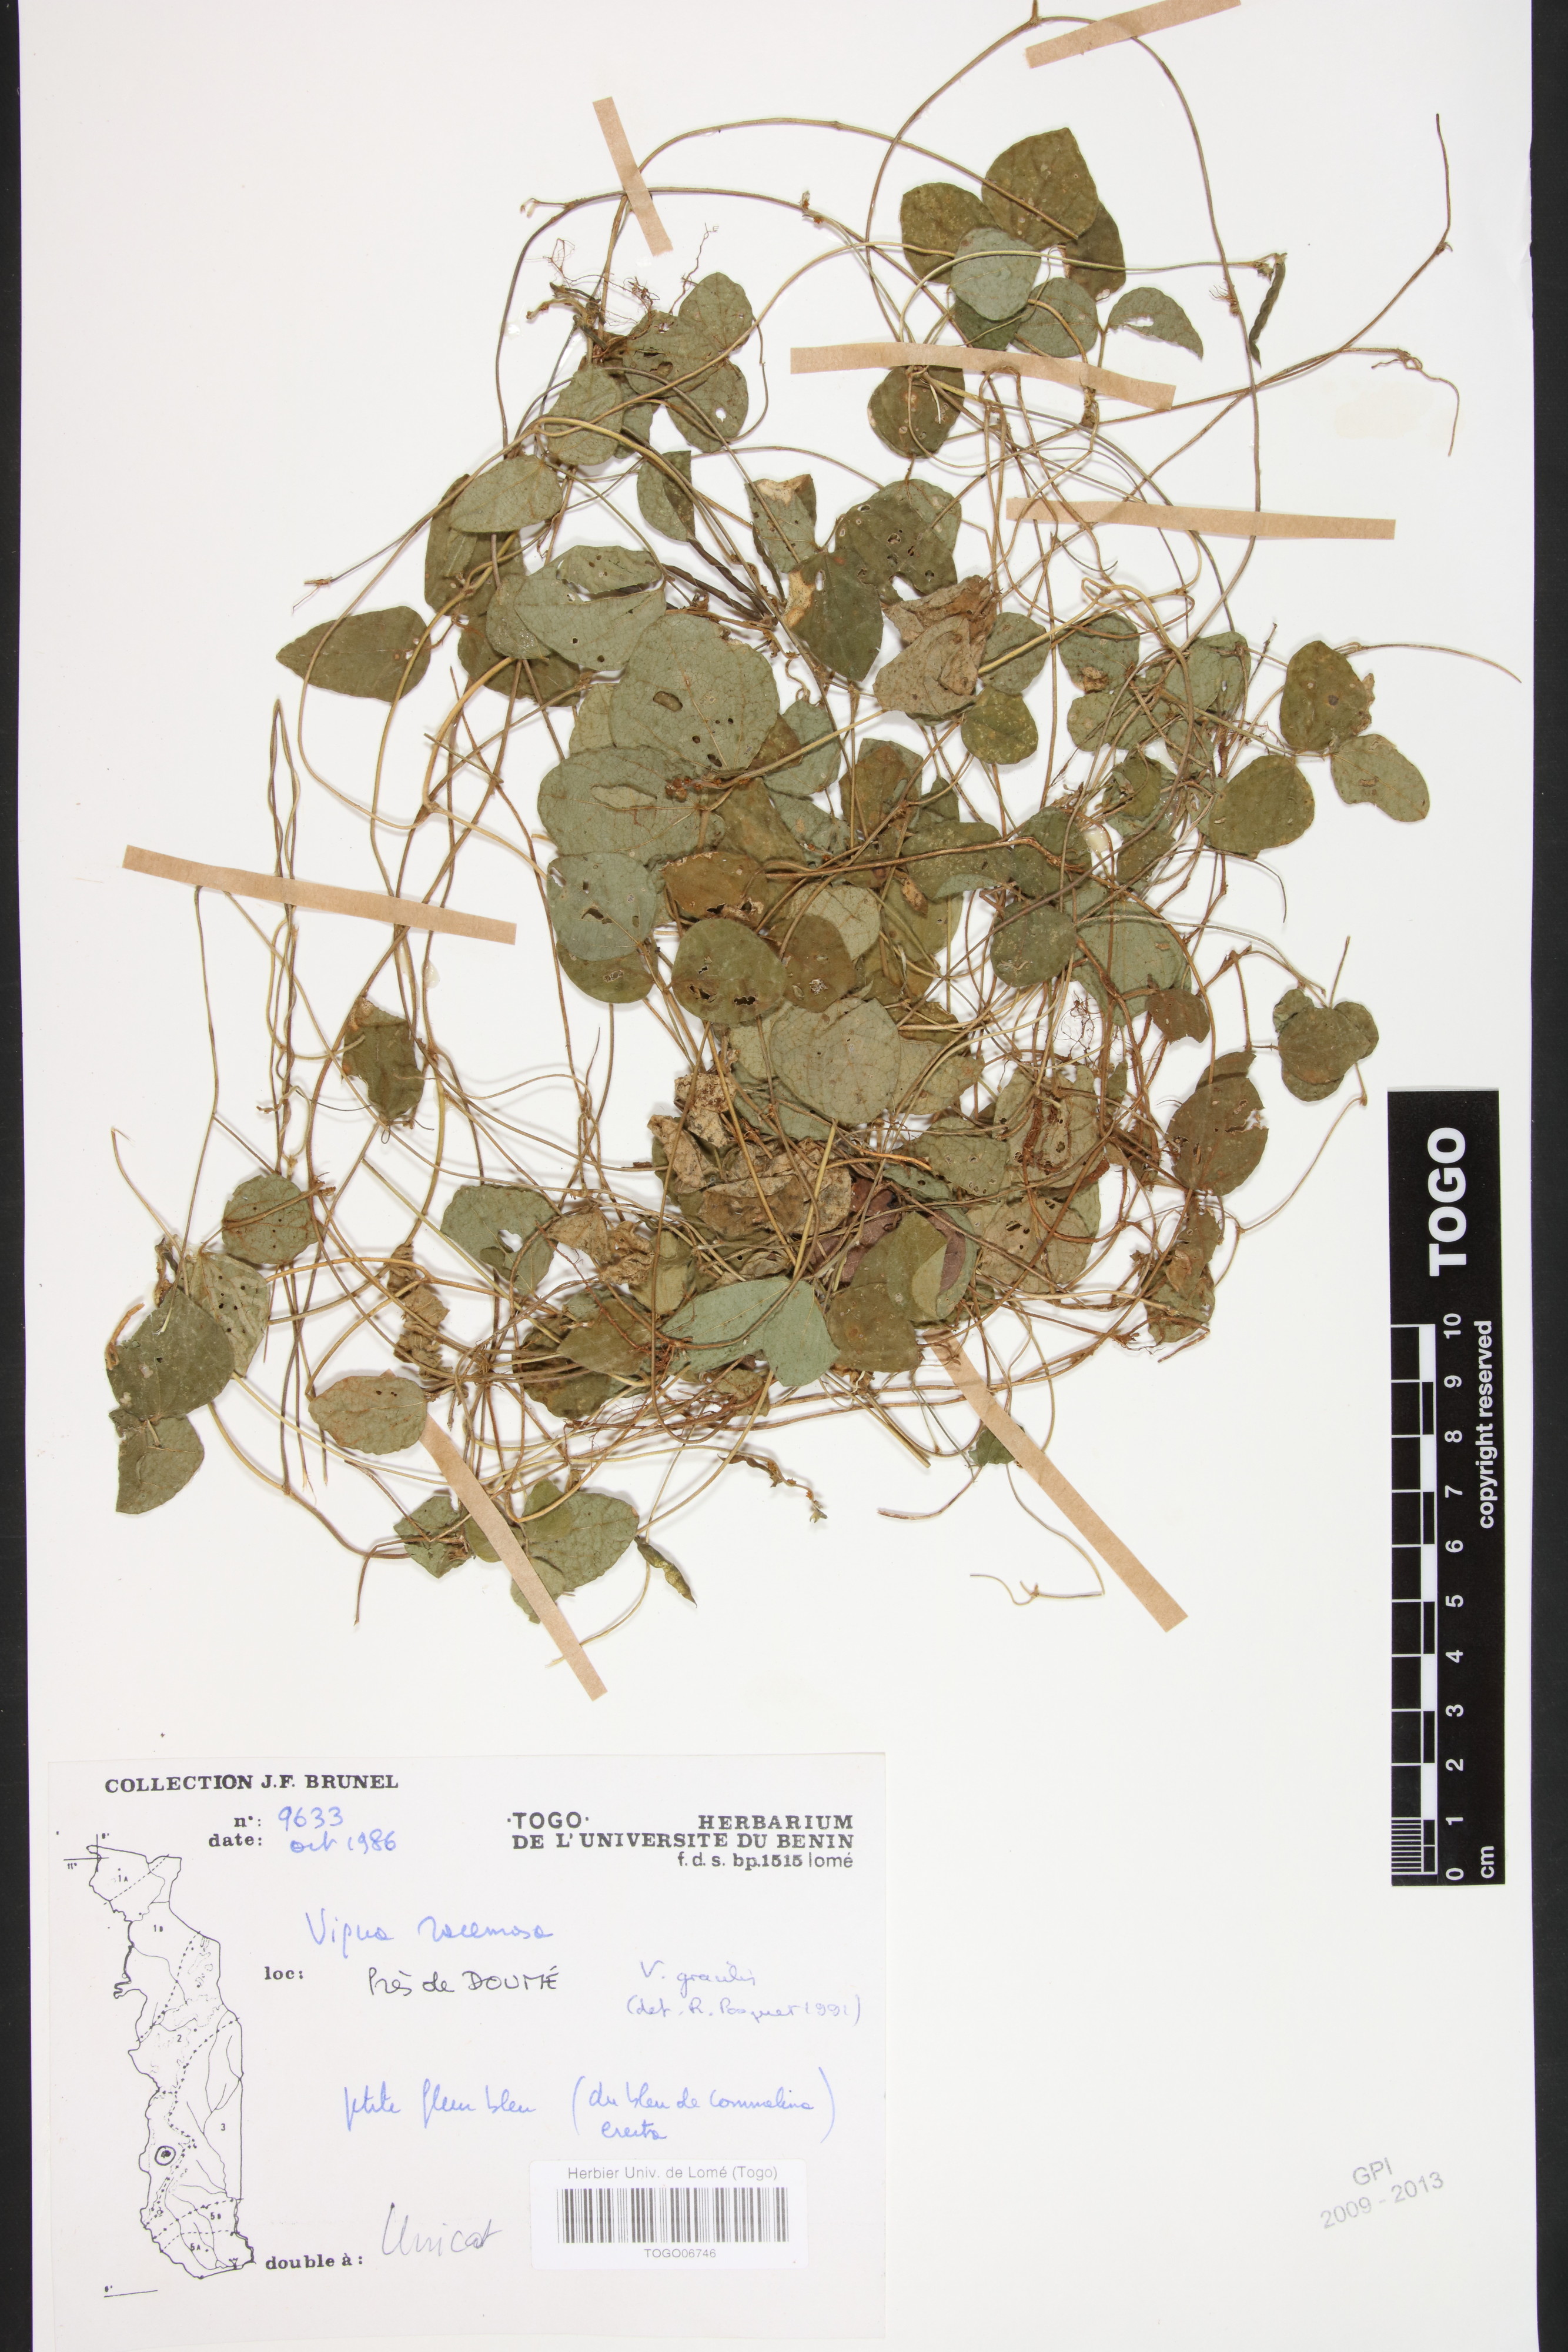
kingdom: Plantae
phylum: Tracheophyta
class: Magnoliopsida
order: Fabales
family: Fabaceae
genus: Vigna
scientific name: Vigna racemosa
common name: Beans not eaten
